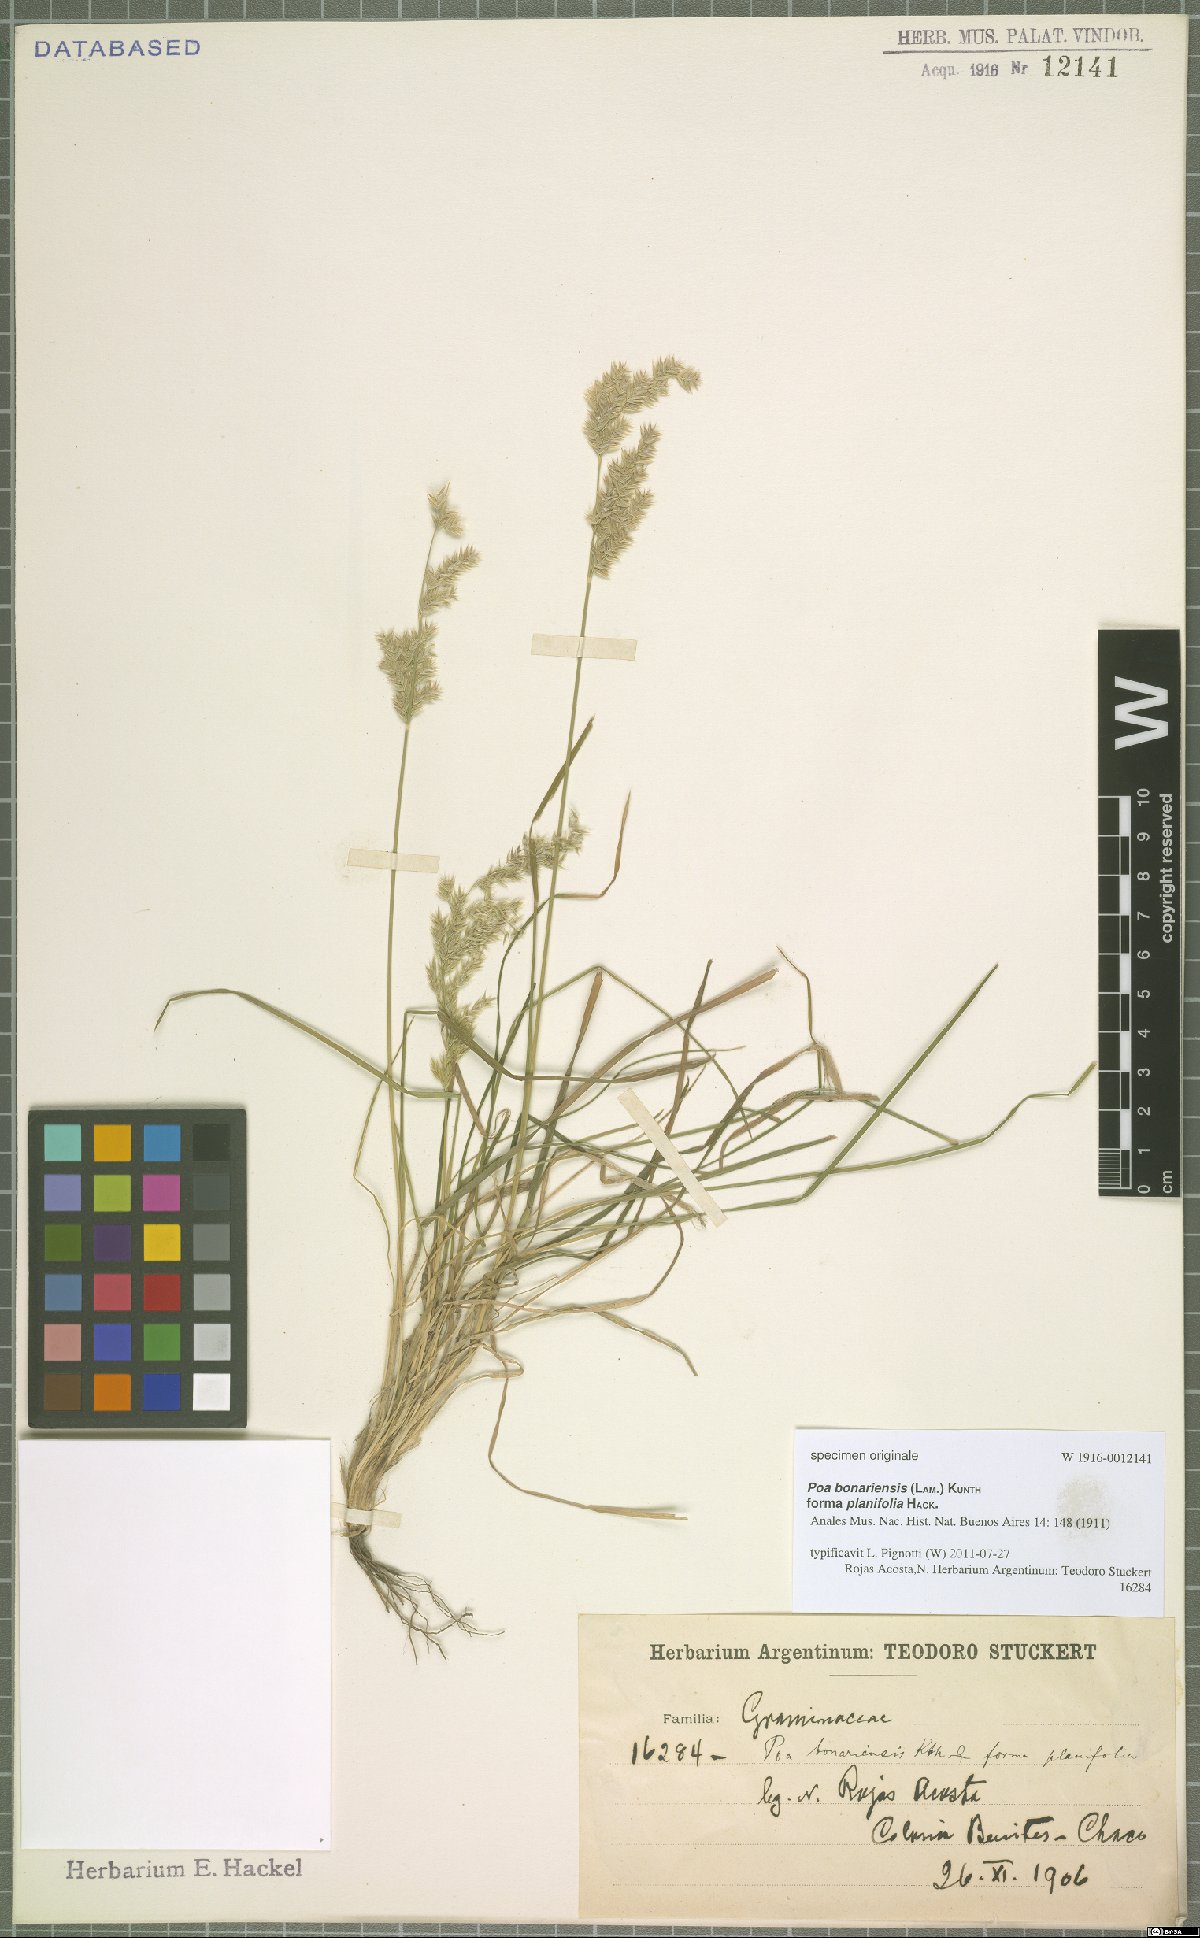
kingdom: Plantae
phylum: Tracheophyta
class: Liliopsida
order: Poales
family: Poaceae
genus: Poa
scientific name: Poa bonariensis
